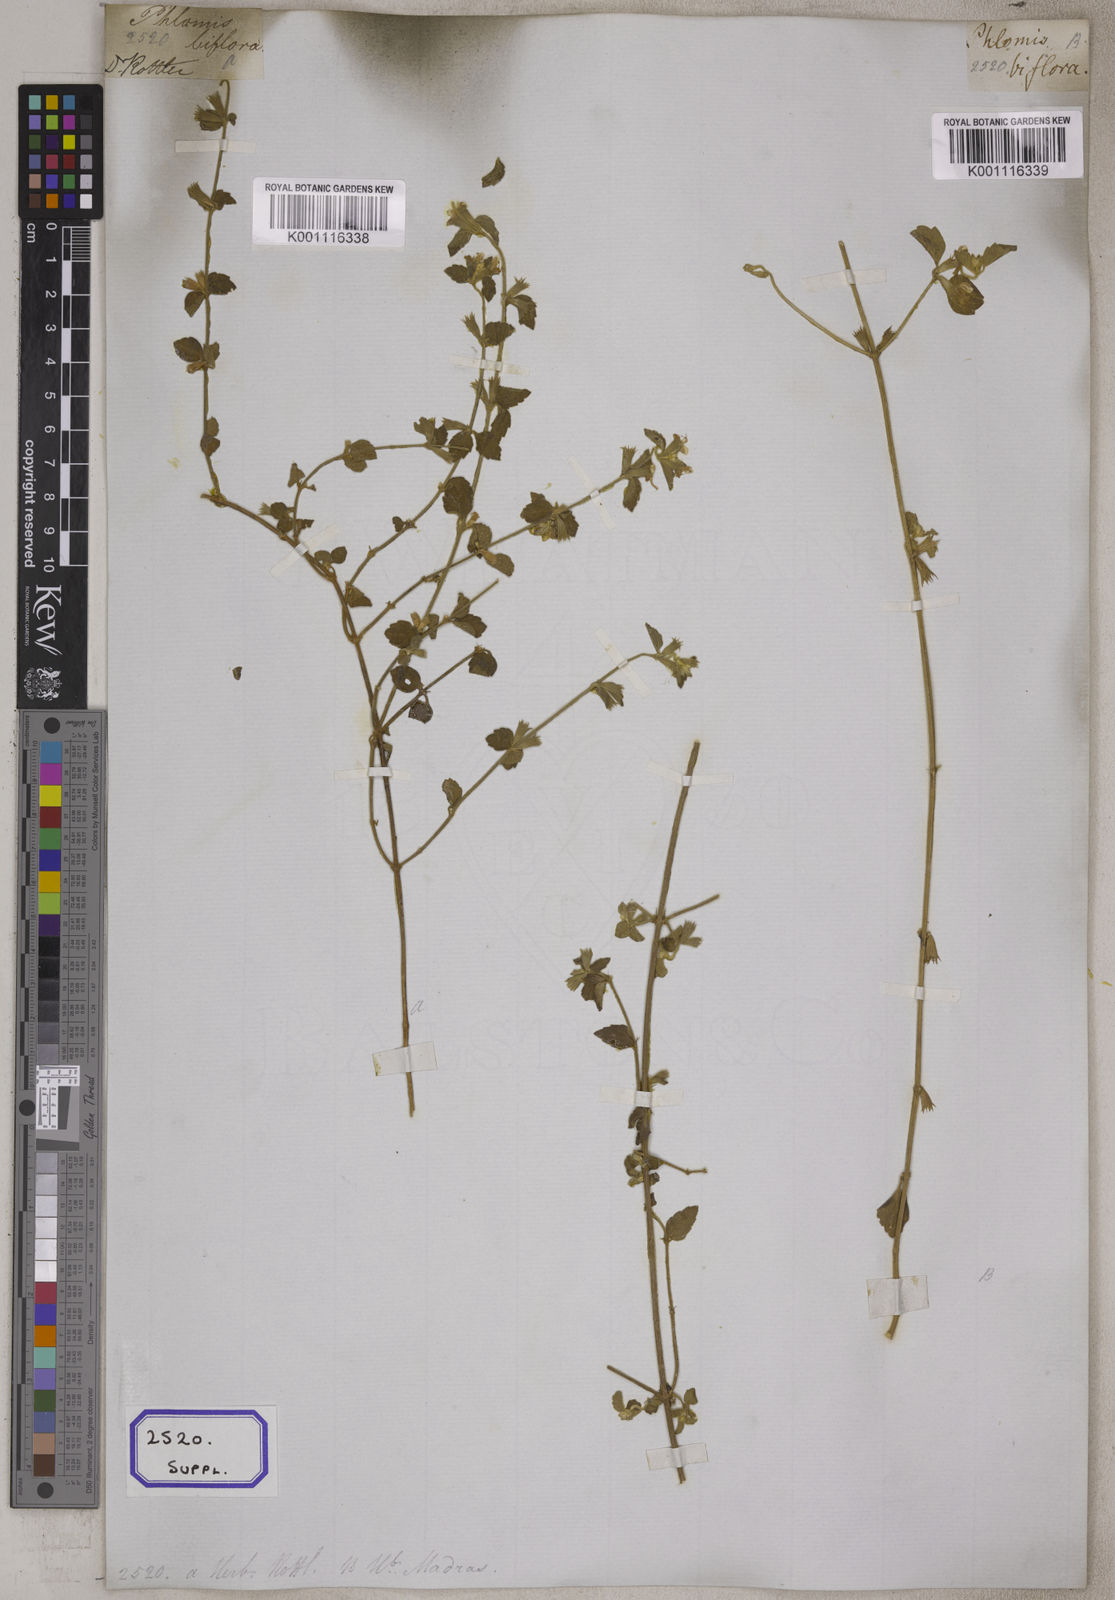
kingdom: Plantae
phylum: Tracheophyta
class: Magnoliopsida
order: Lamiales
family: Lamiaceae
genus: Leucas
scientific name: Leucas wightiana
